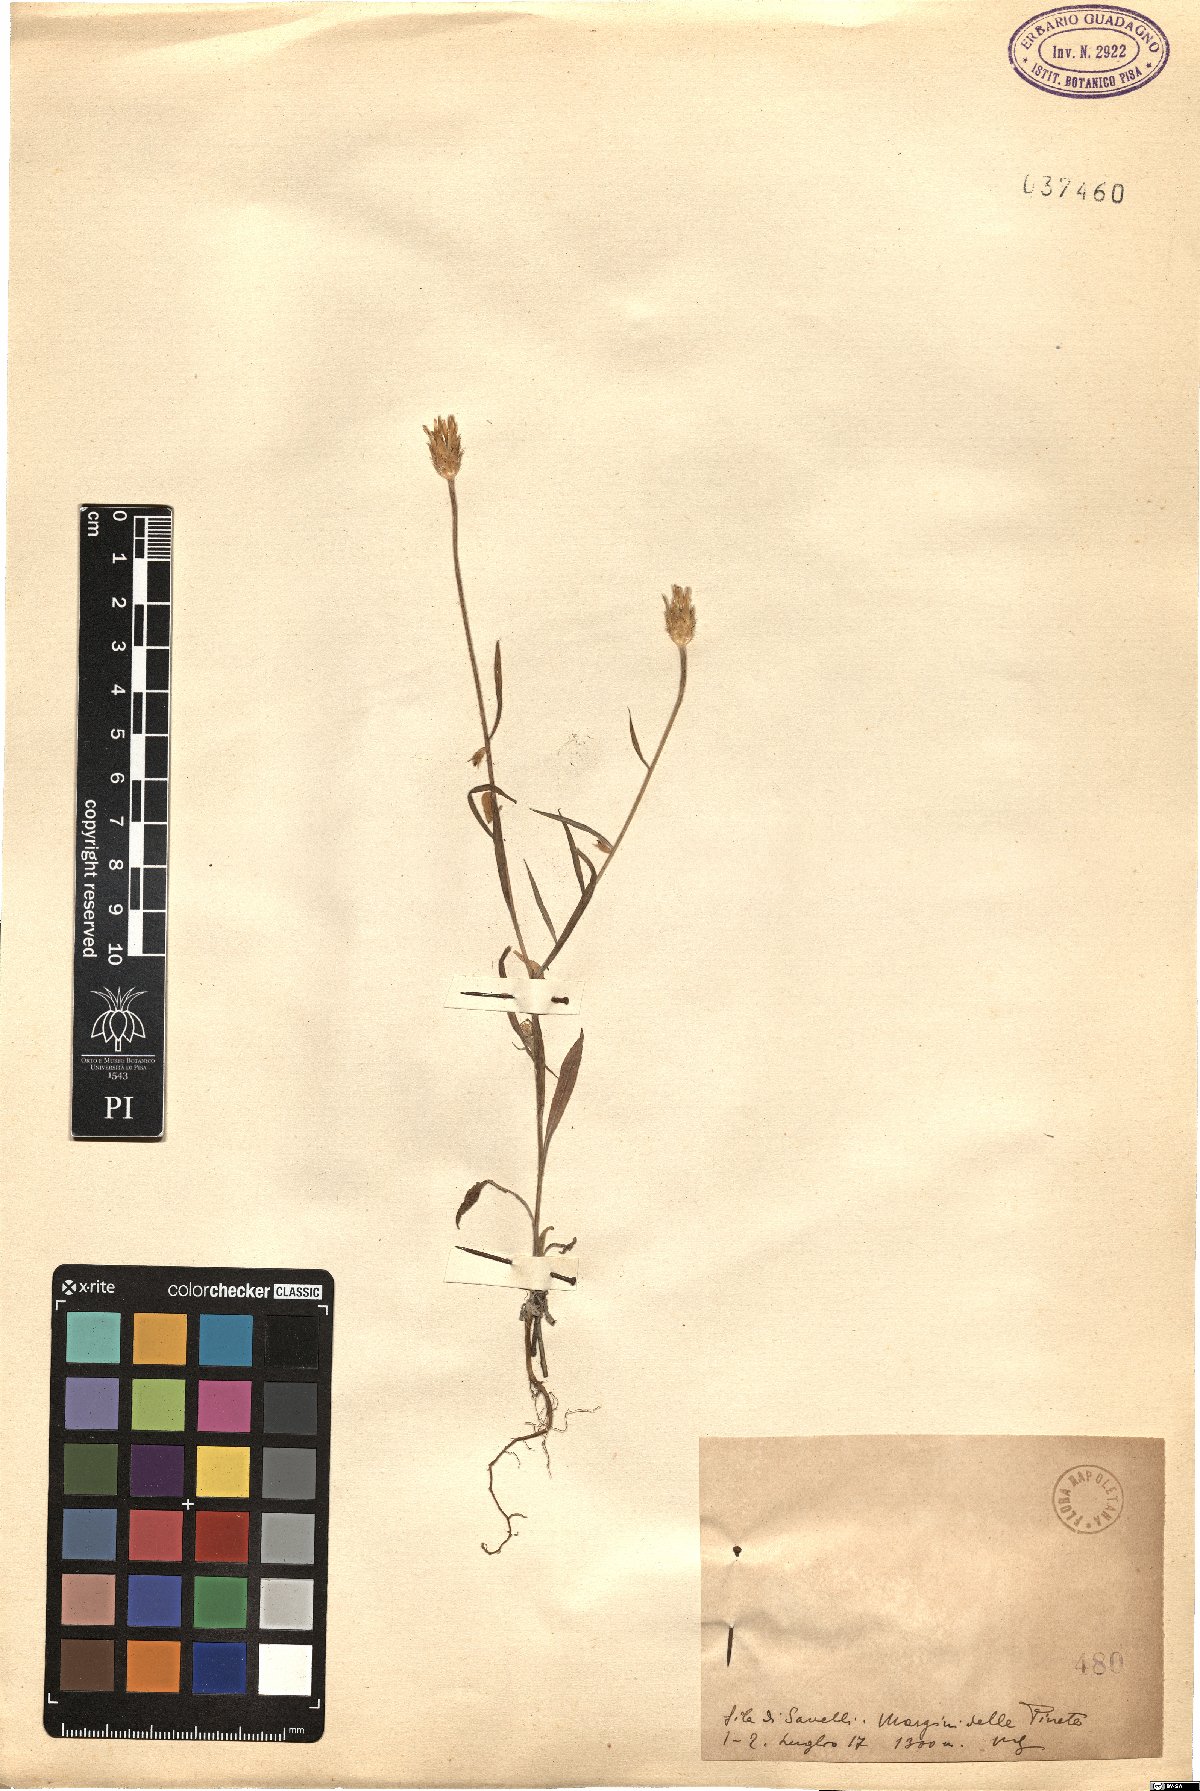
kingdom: Plantae
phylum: Tracheophyta
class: Magnoliopsida
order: Asterales
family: Asteraceae
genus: Xeranthemum
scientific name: Xeranthemum
